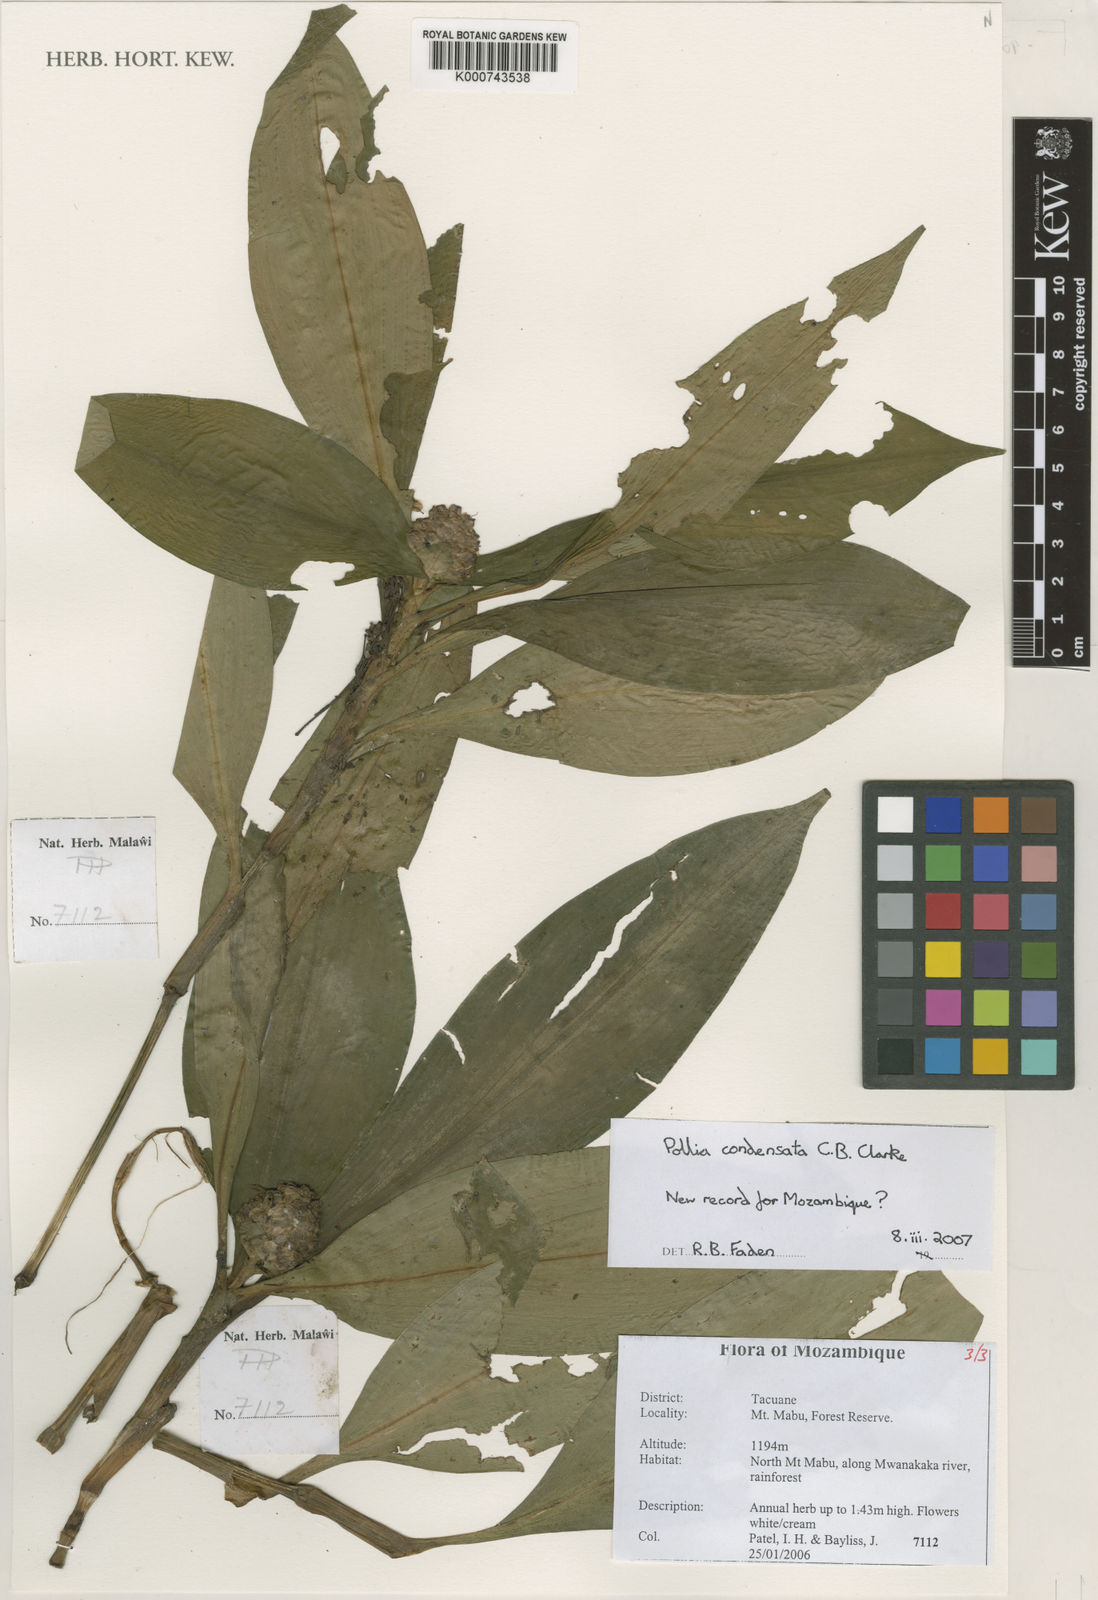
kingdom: Plantae
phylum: Tracheophyta
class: Liliopsida
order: Commelinales
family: Commelinaceae
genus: Pollia
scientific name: Pollia condensata
